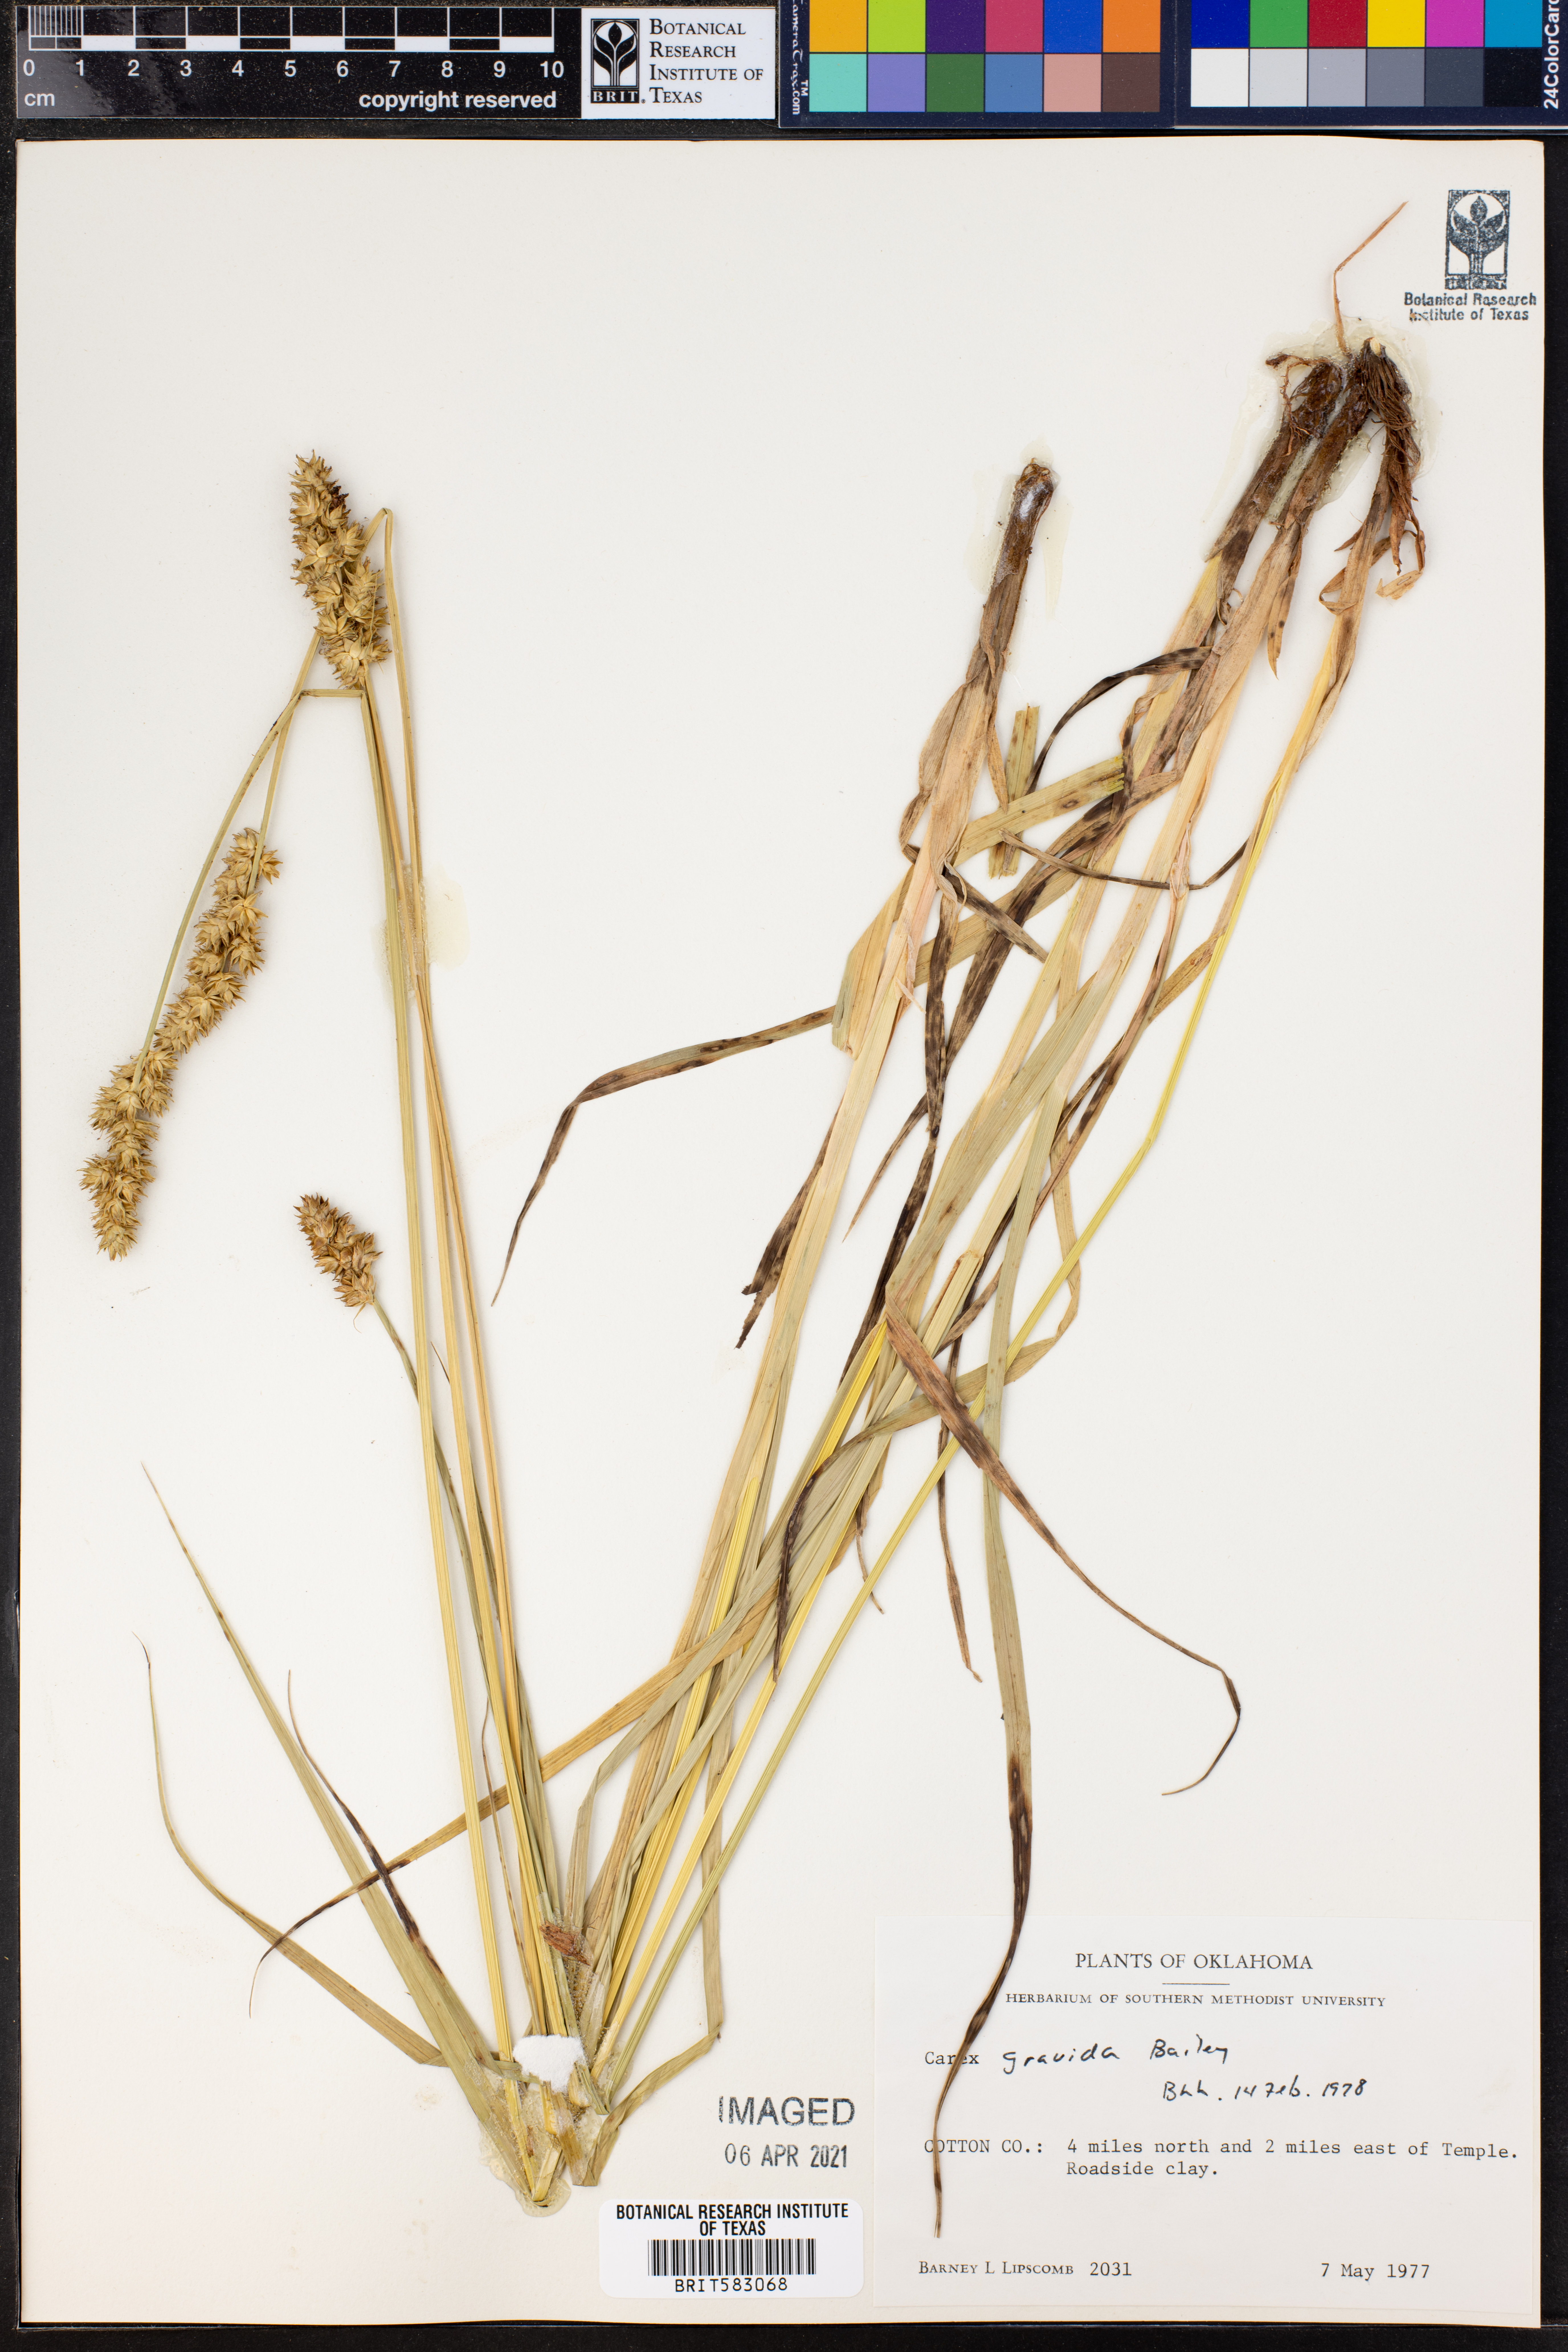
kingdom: Plantae
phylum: Tracheophyta
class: Liliopsida
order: Poales
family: Cyperaceae
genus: Carex
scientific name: Carex gravida
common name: Heavy sedge
